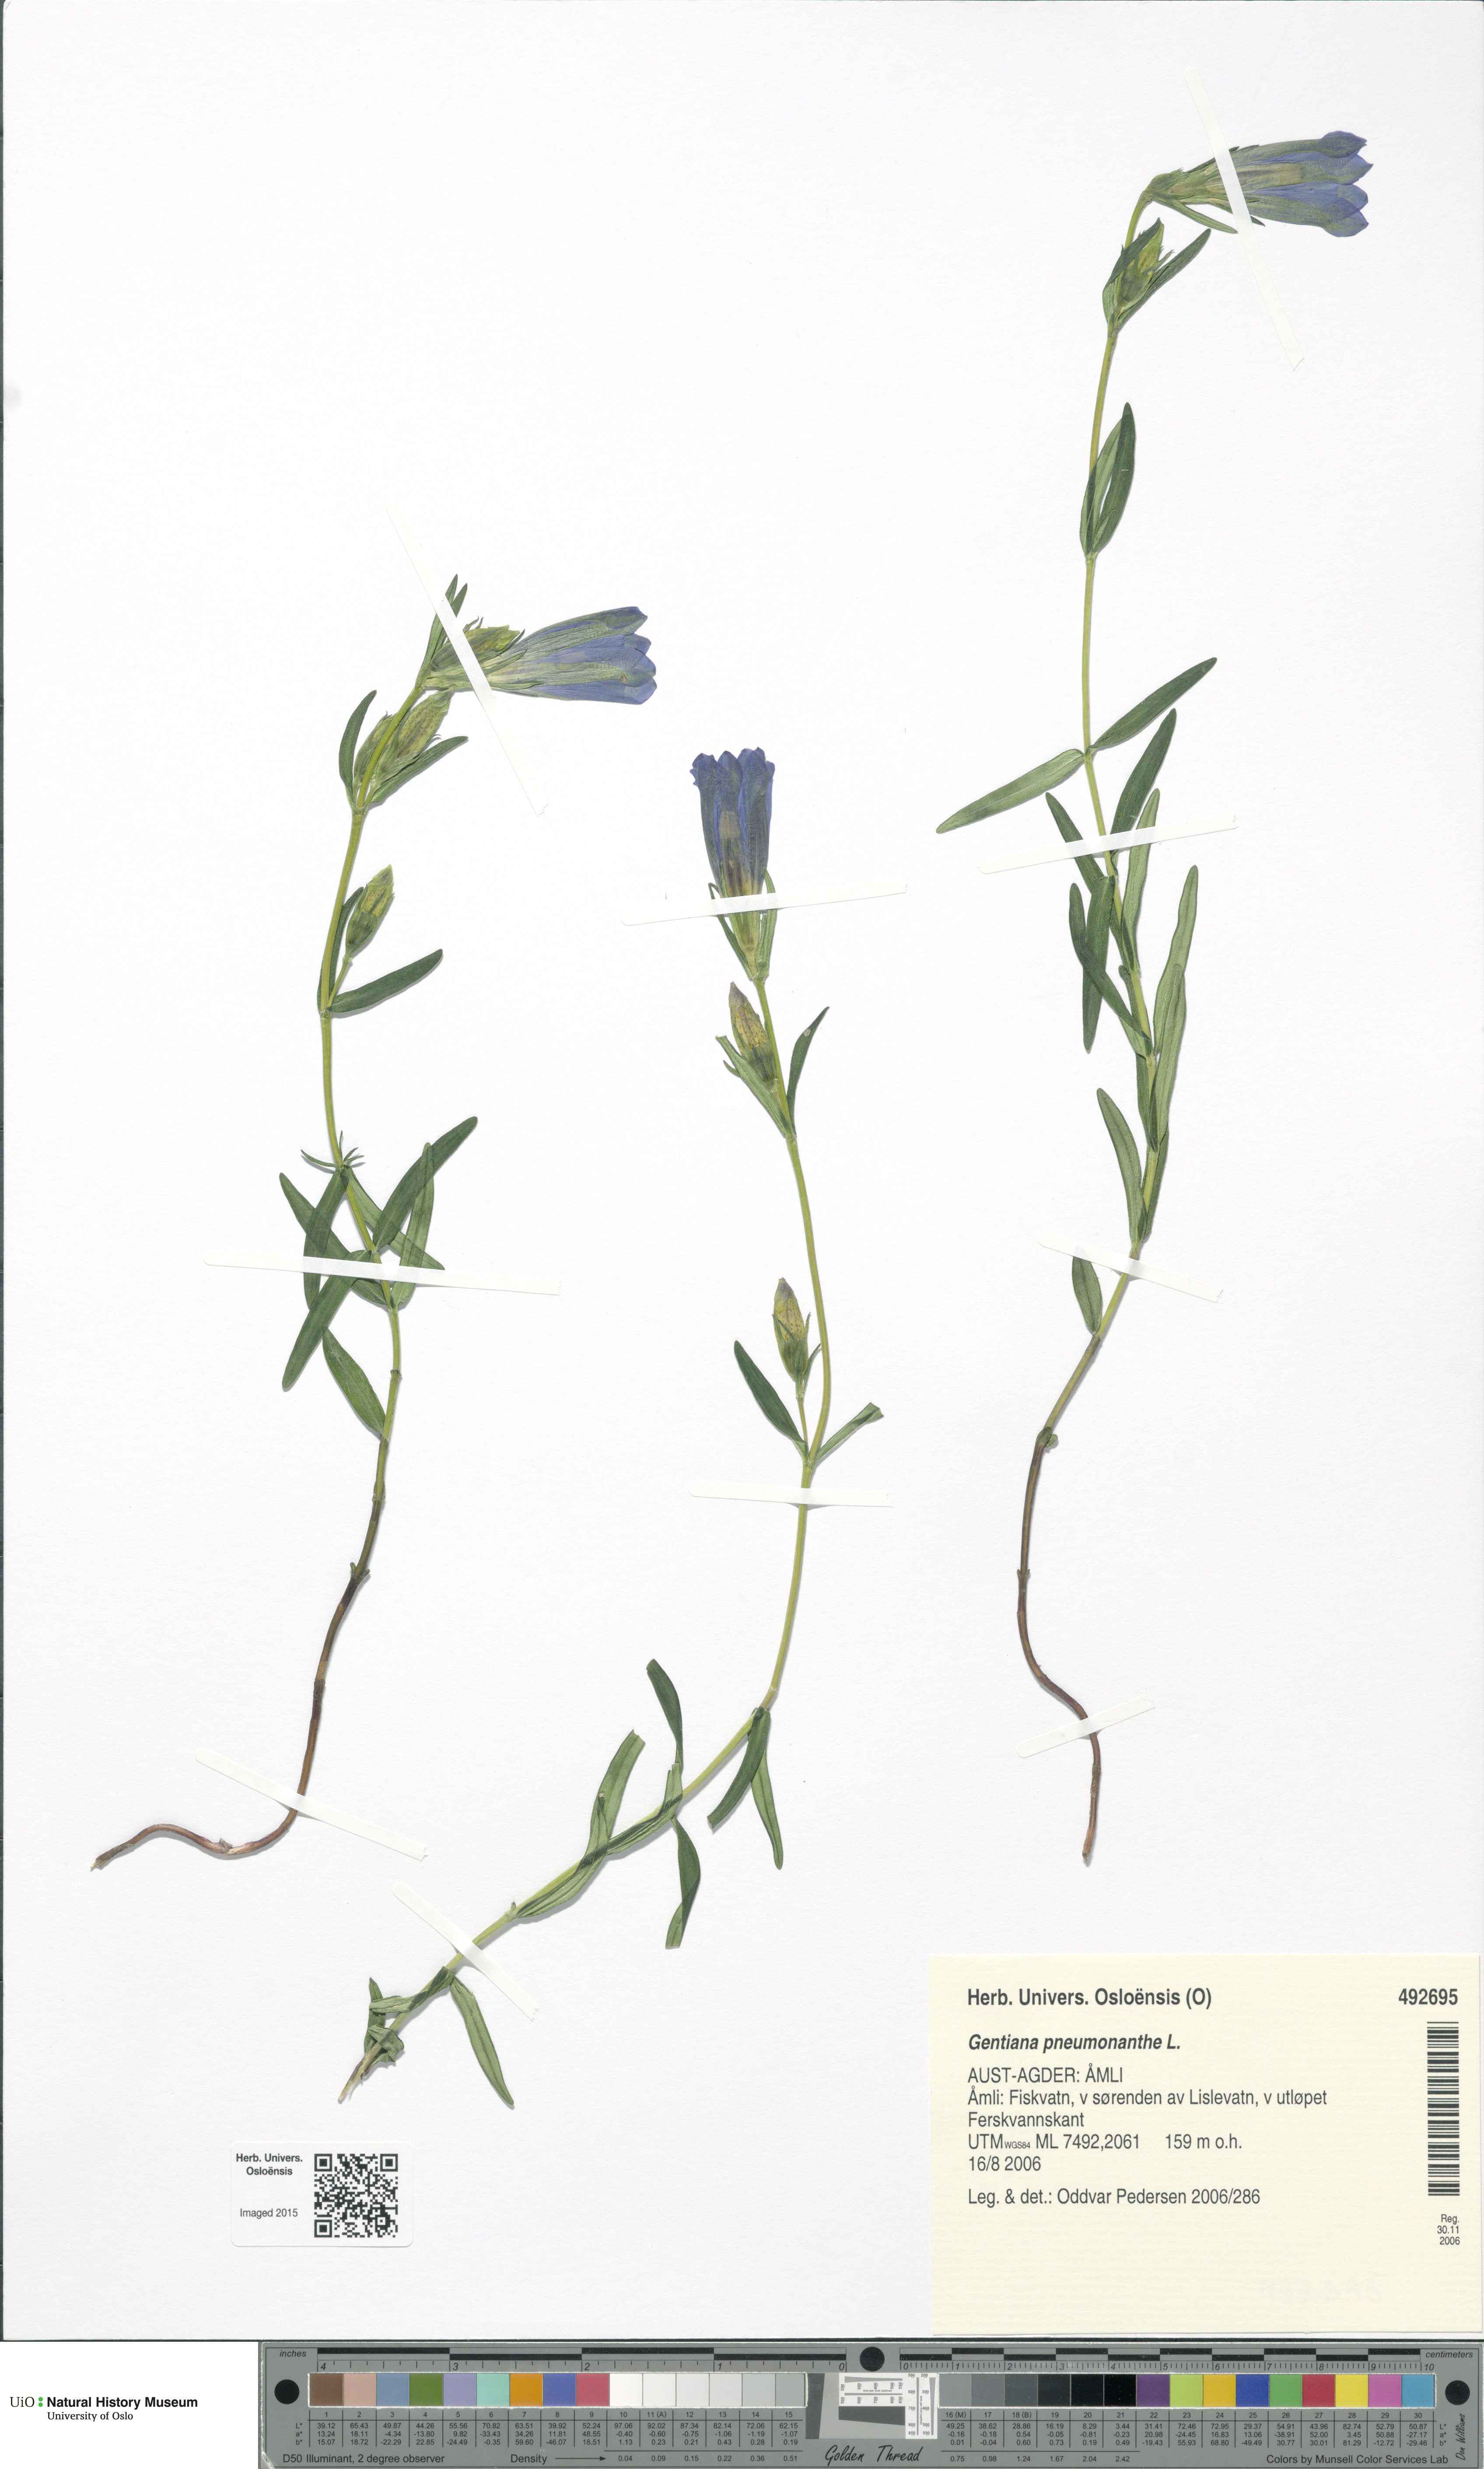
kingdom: Plantae
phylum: Tracheophyta
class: Magnoliopsida
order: Gentianales
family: Gentianaceae
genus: Gentiana
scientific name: Gentiana pneumonanthe
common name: Marsh gentian
